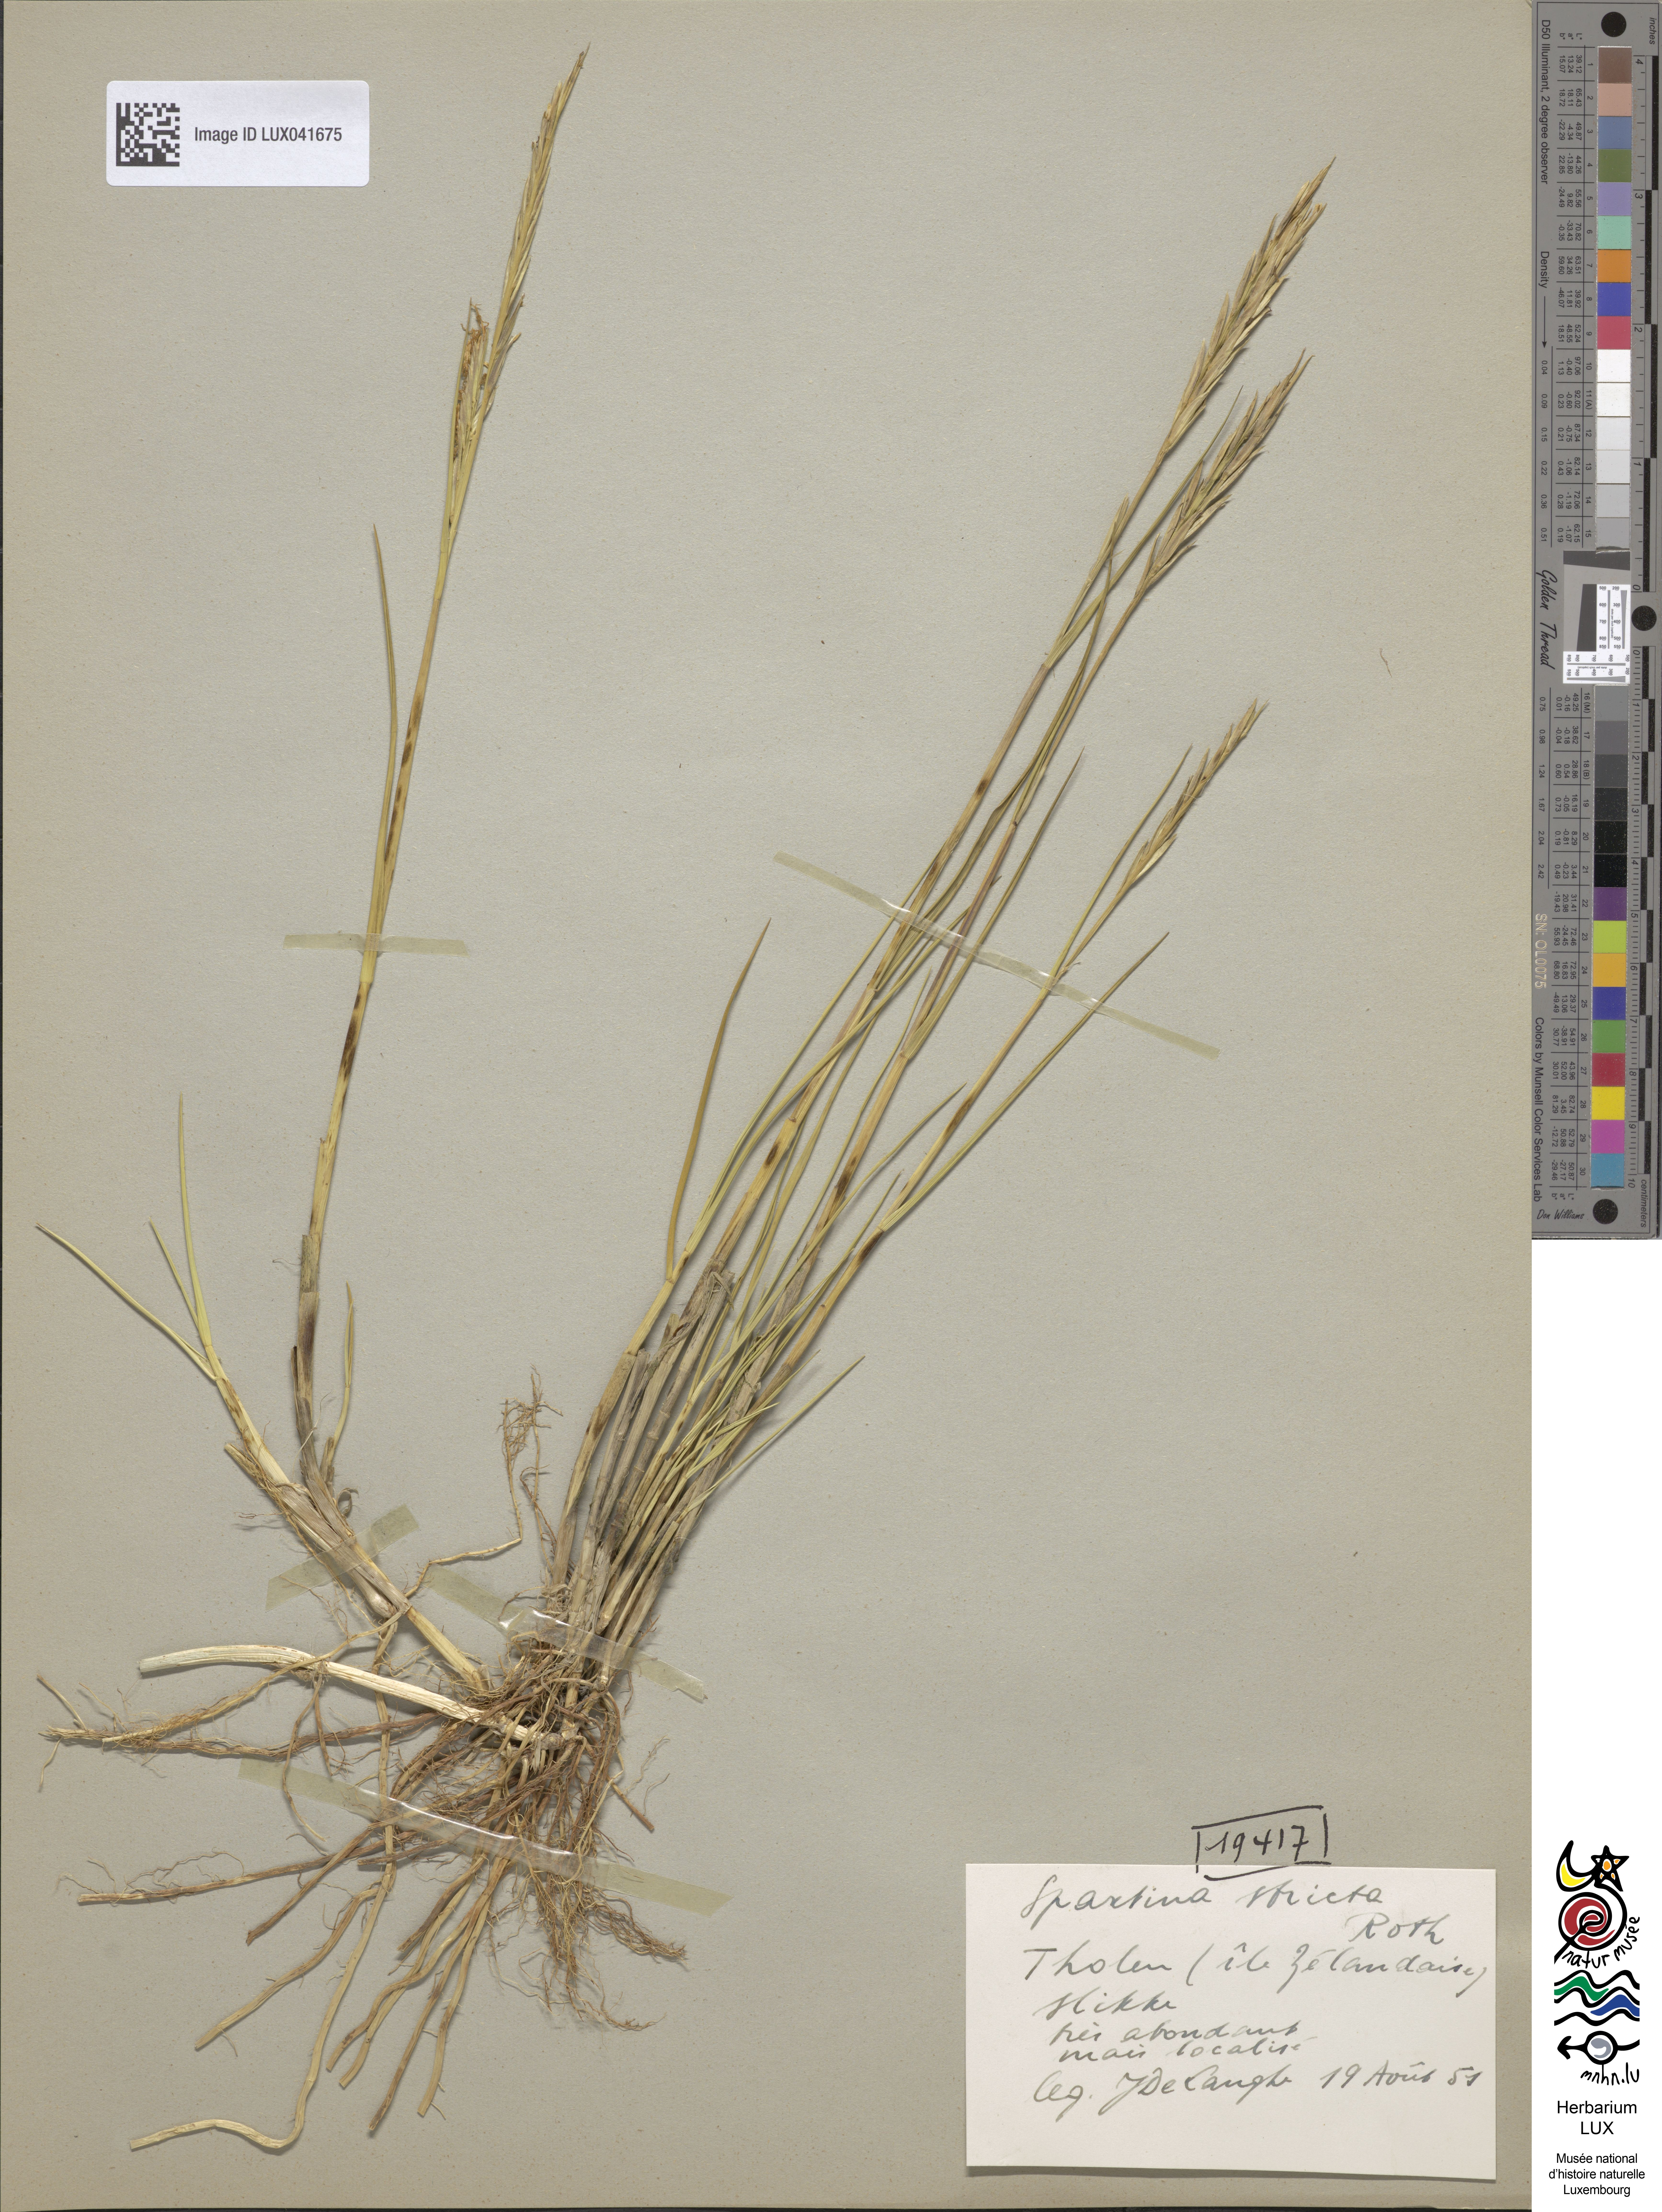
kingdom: Plantae
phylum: Tracheophyta
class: Liliopsida
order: Poales
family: Poaceae
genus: Sporobolus
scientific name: Sporobolus maritimus
